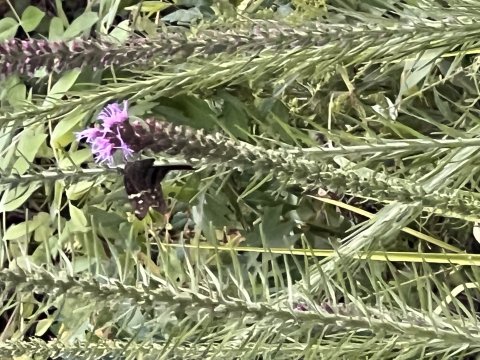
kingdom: Animalia
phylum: Arthropoda
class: Insecta
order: Lepidoptera
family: Hesperiidae
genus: Urbanus
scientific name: Urbanus proteus
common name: Long-tailed Skipper
